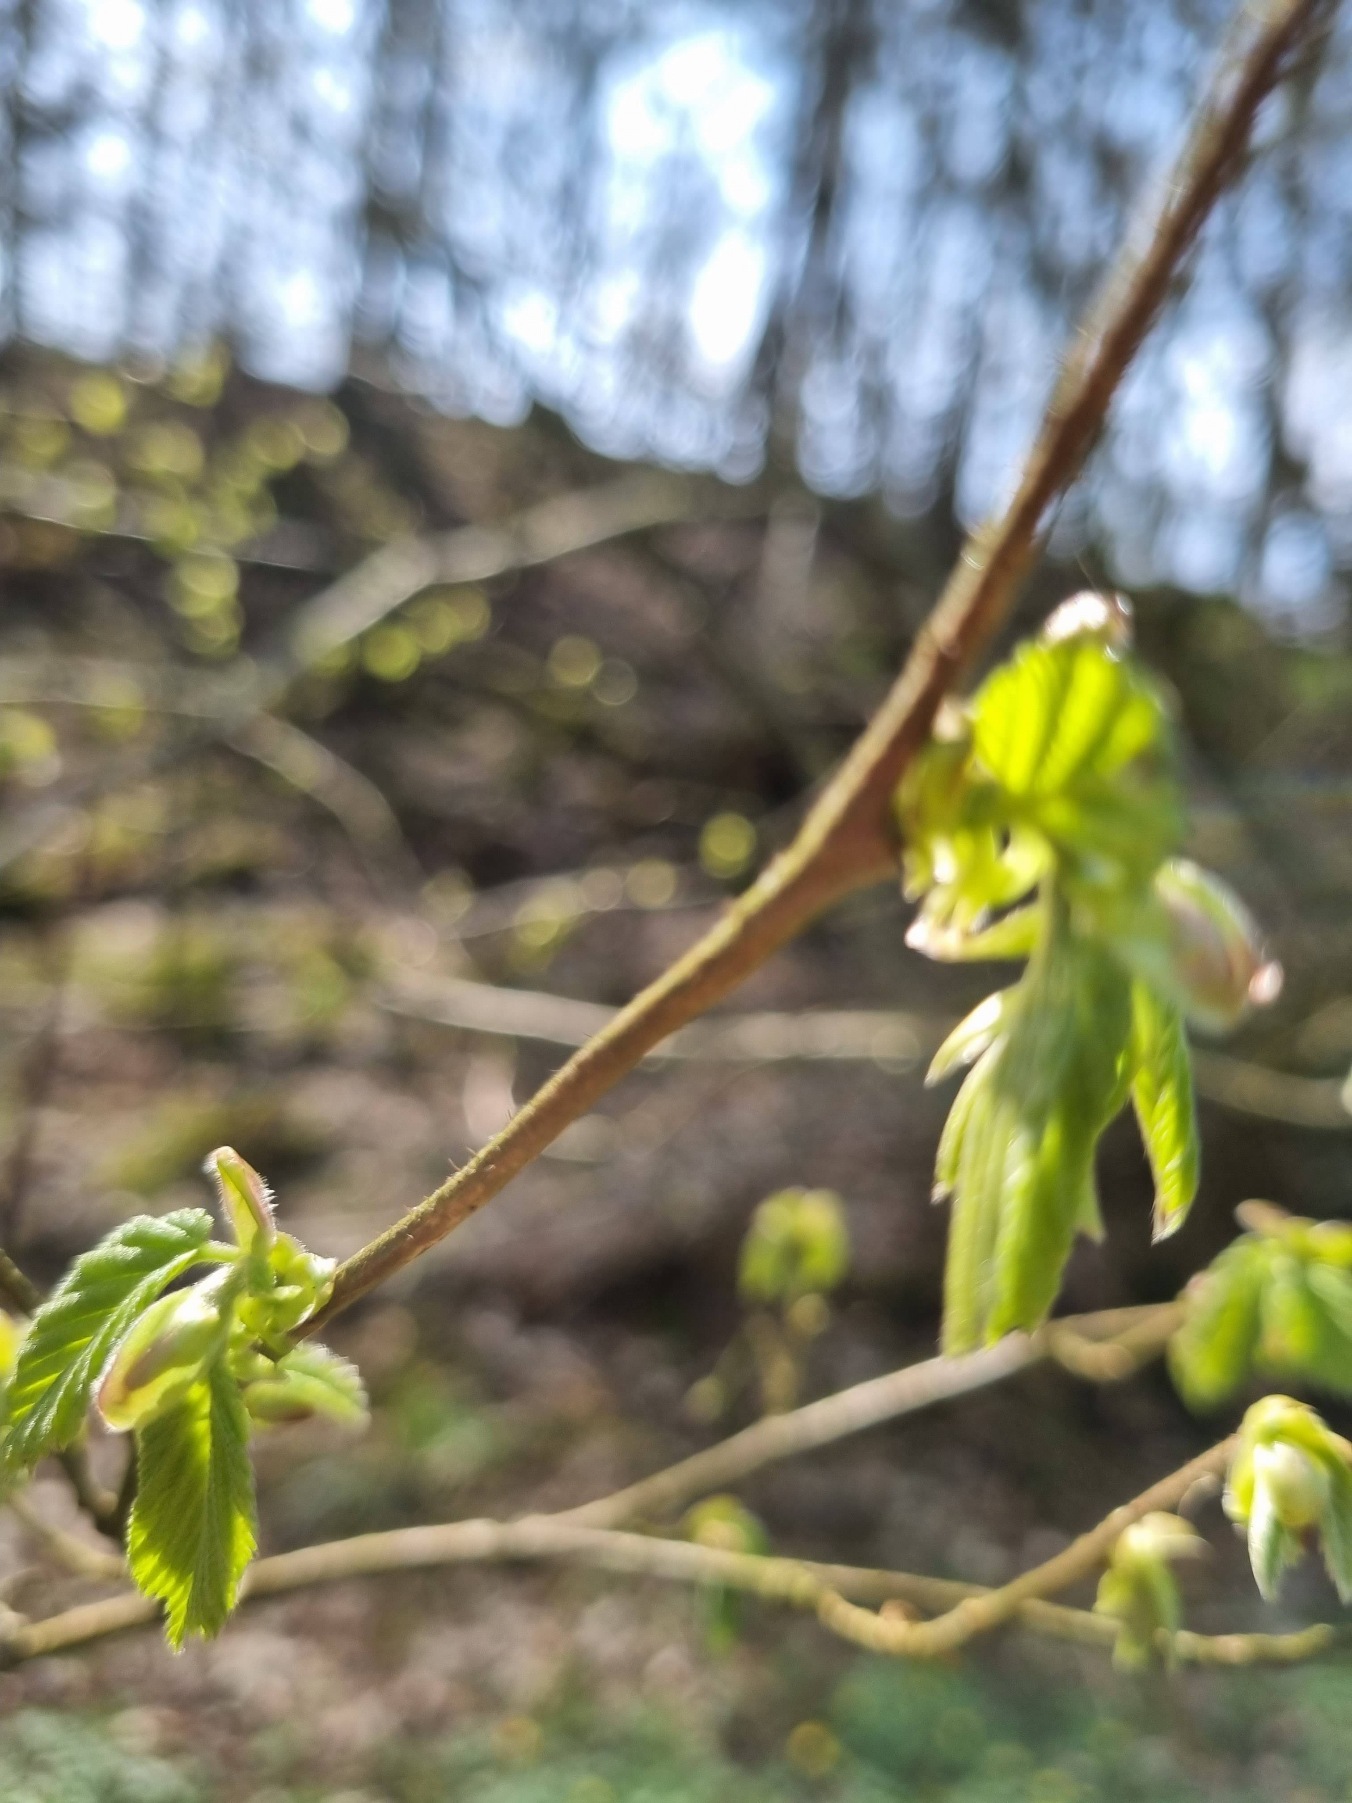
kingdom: Plantae
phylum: Tracheophyta
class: Magnoliopsida
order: Fagales
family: Betulaceae
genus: Corylus
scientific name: Corylus avellana
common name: Hassel
